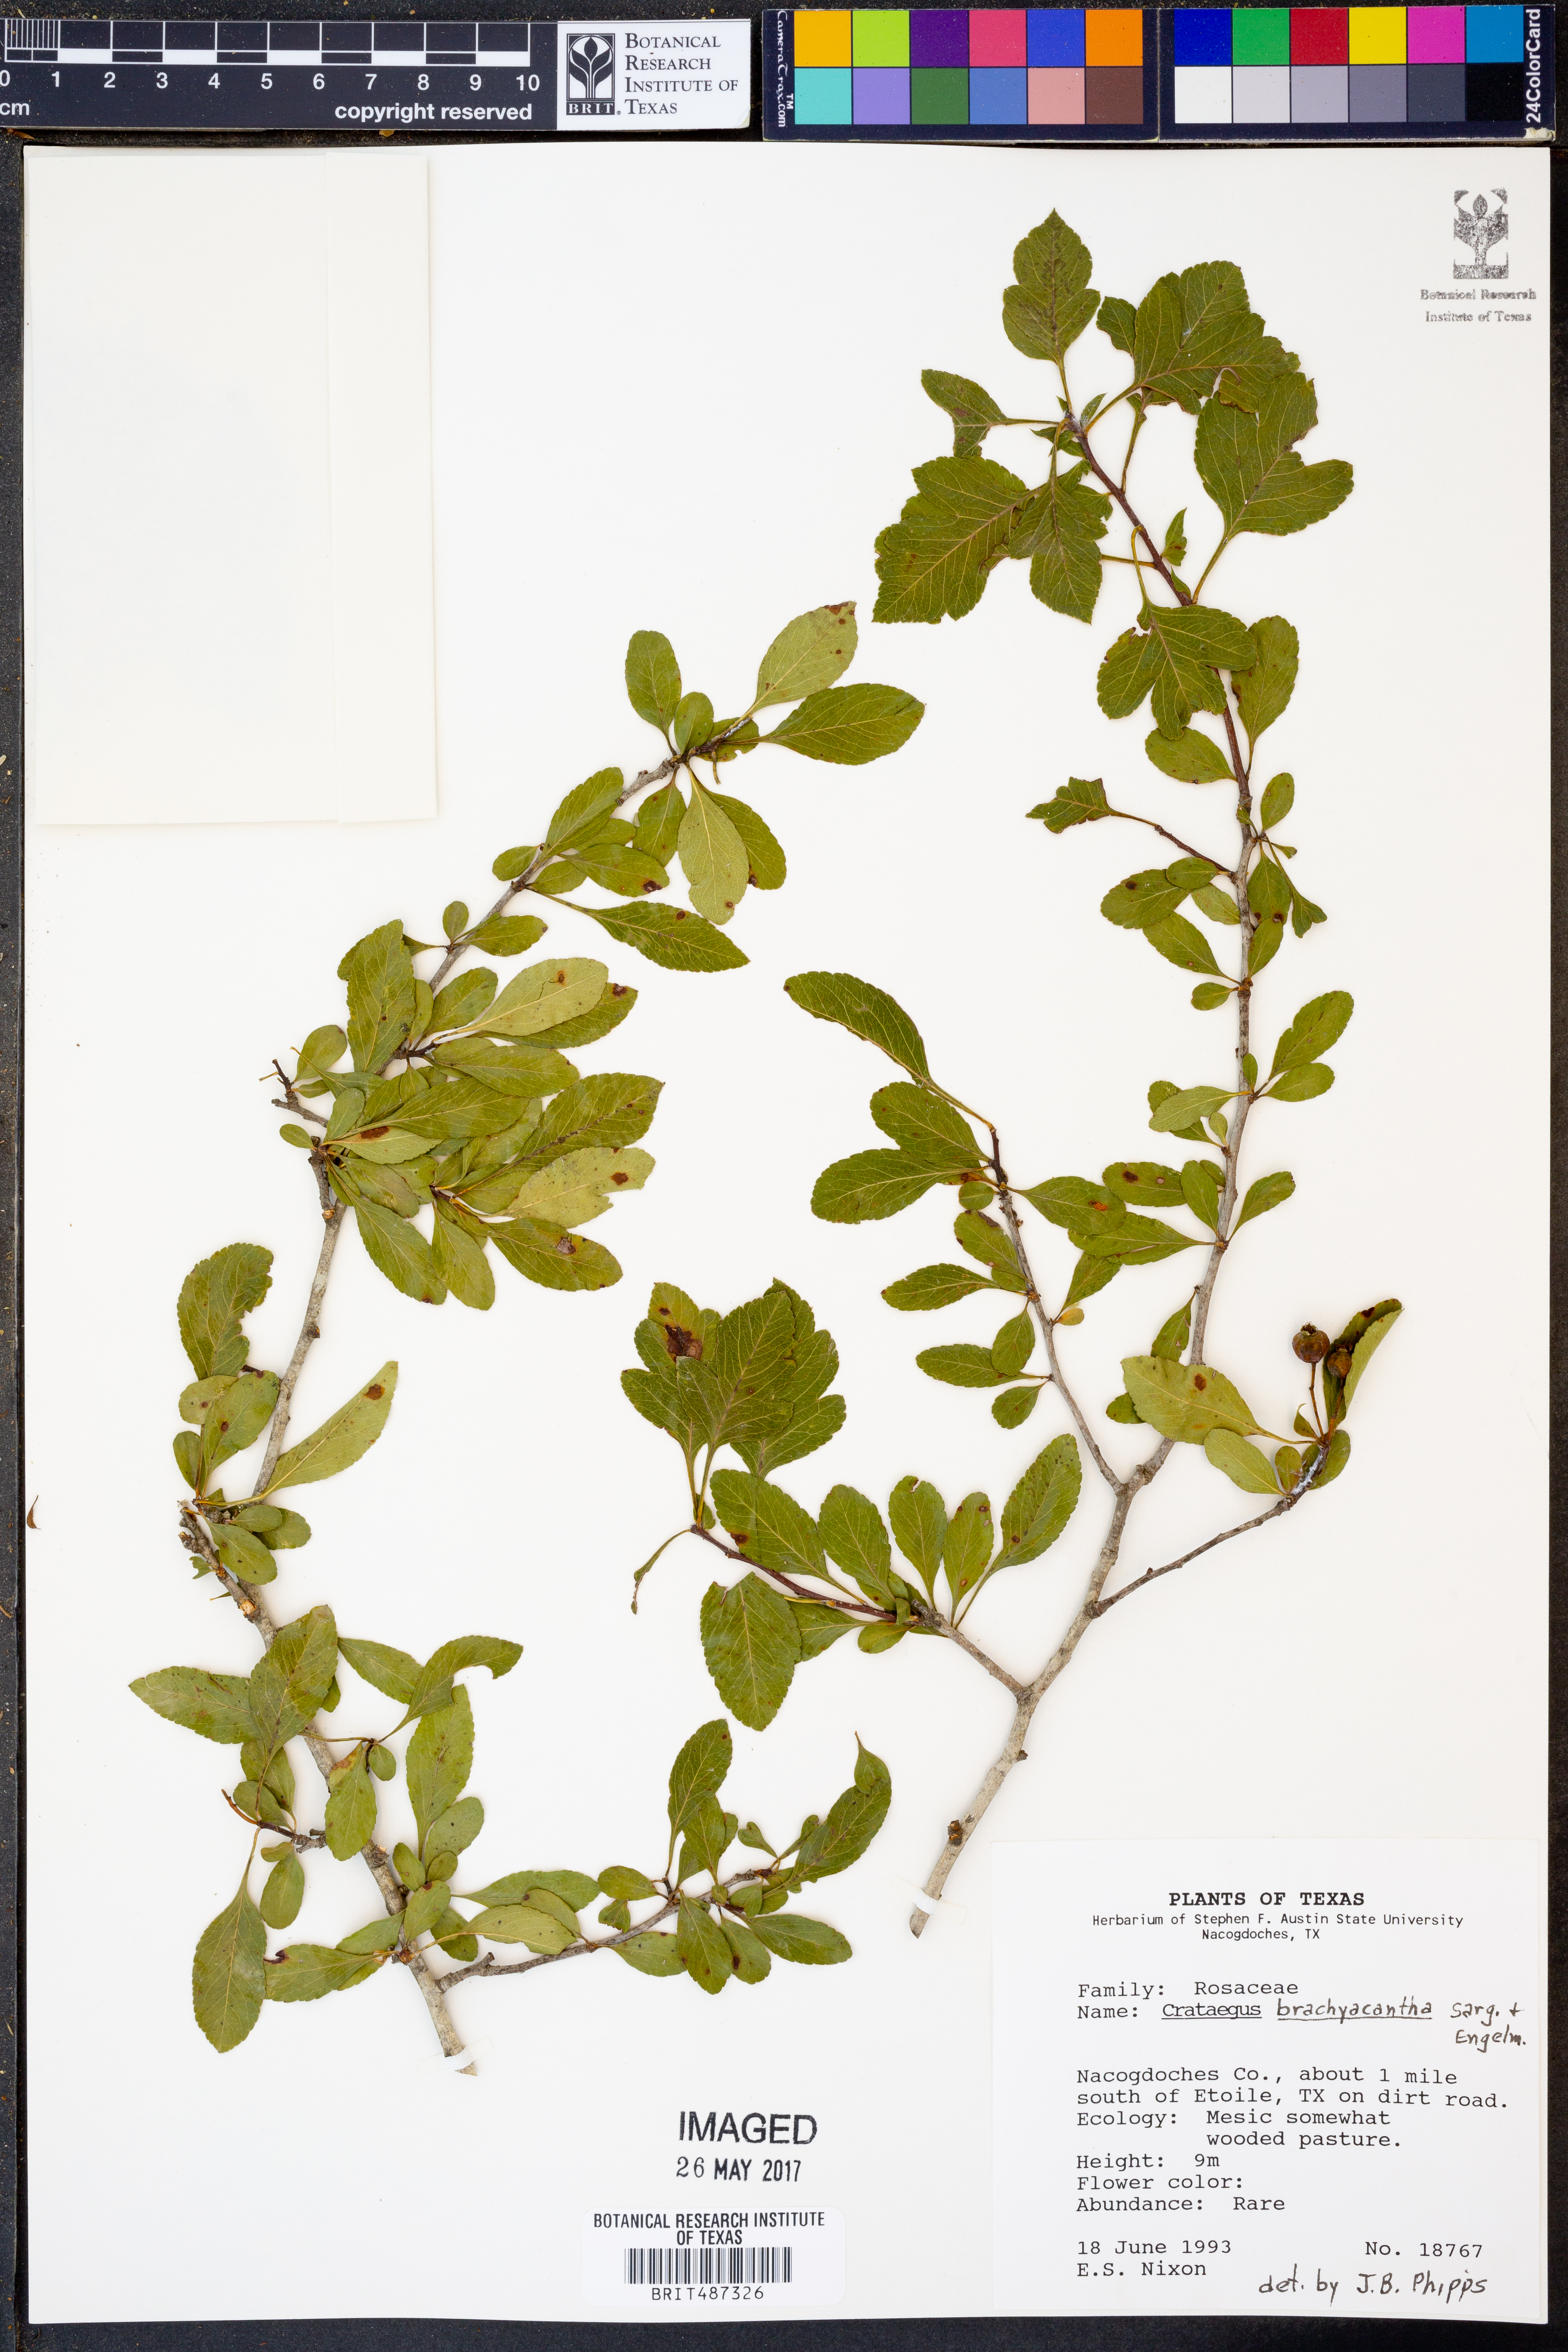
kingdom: Plantae
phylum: Tracheophyta
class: Magnoliopsida
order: Rosales
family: Rosaceae
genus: Crataegus
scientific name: Crataegus brachyacantha
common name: Blueberry-hawthorn
